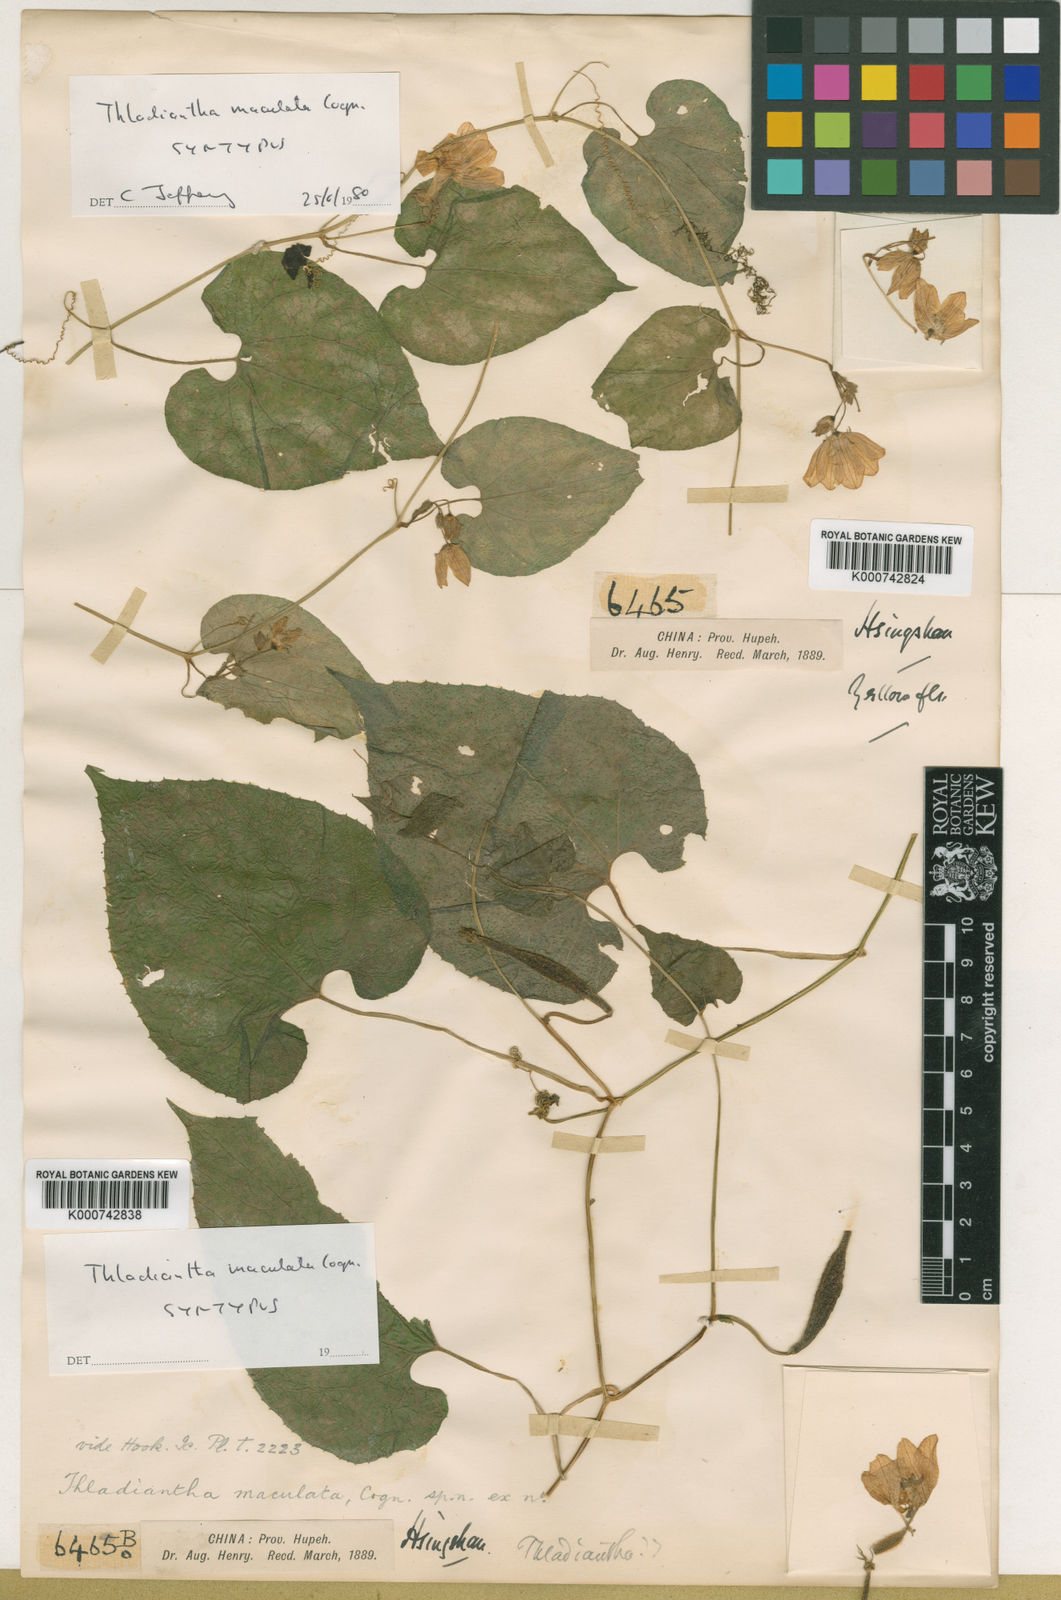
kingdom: Plantae
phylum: Tracheophyta
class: Magnoliopsida
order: Cucurbitales
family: Cucurbitaceae
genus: Thladiantha
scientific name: Thladiantha
